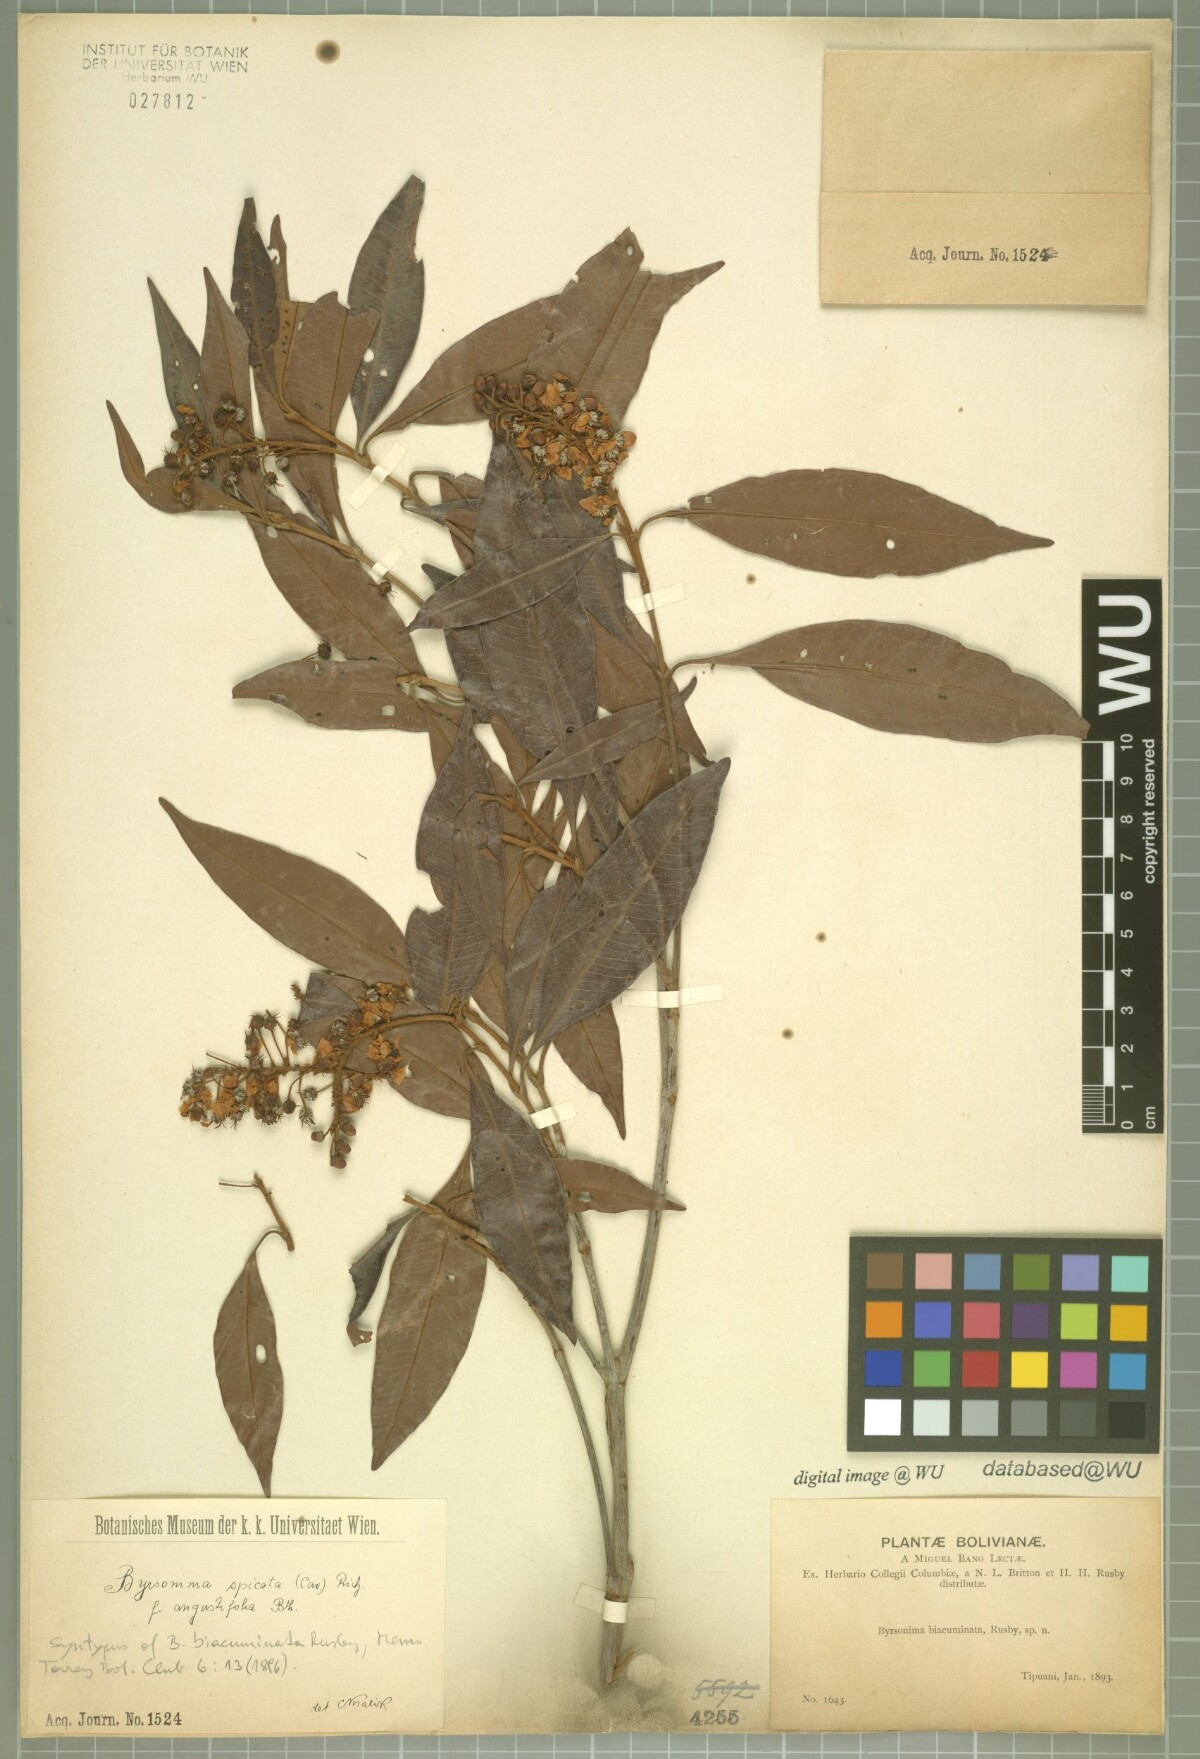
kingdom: Plantae
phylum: Tracheophyta
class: Magnoliopsida
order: Malpighiales
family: Malpighiaceae
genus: Byrsonima
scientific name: Byrsonima spicata
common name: Murixi-bark-tree
